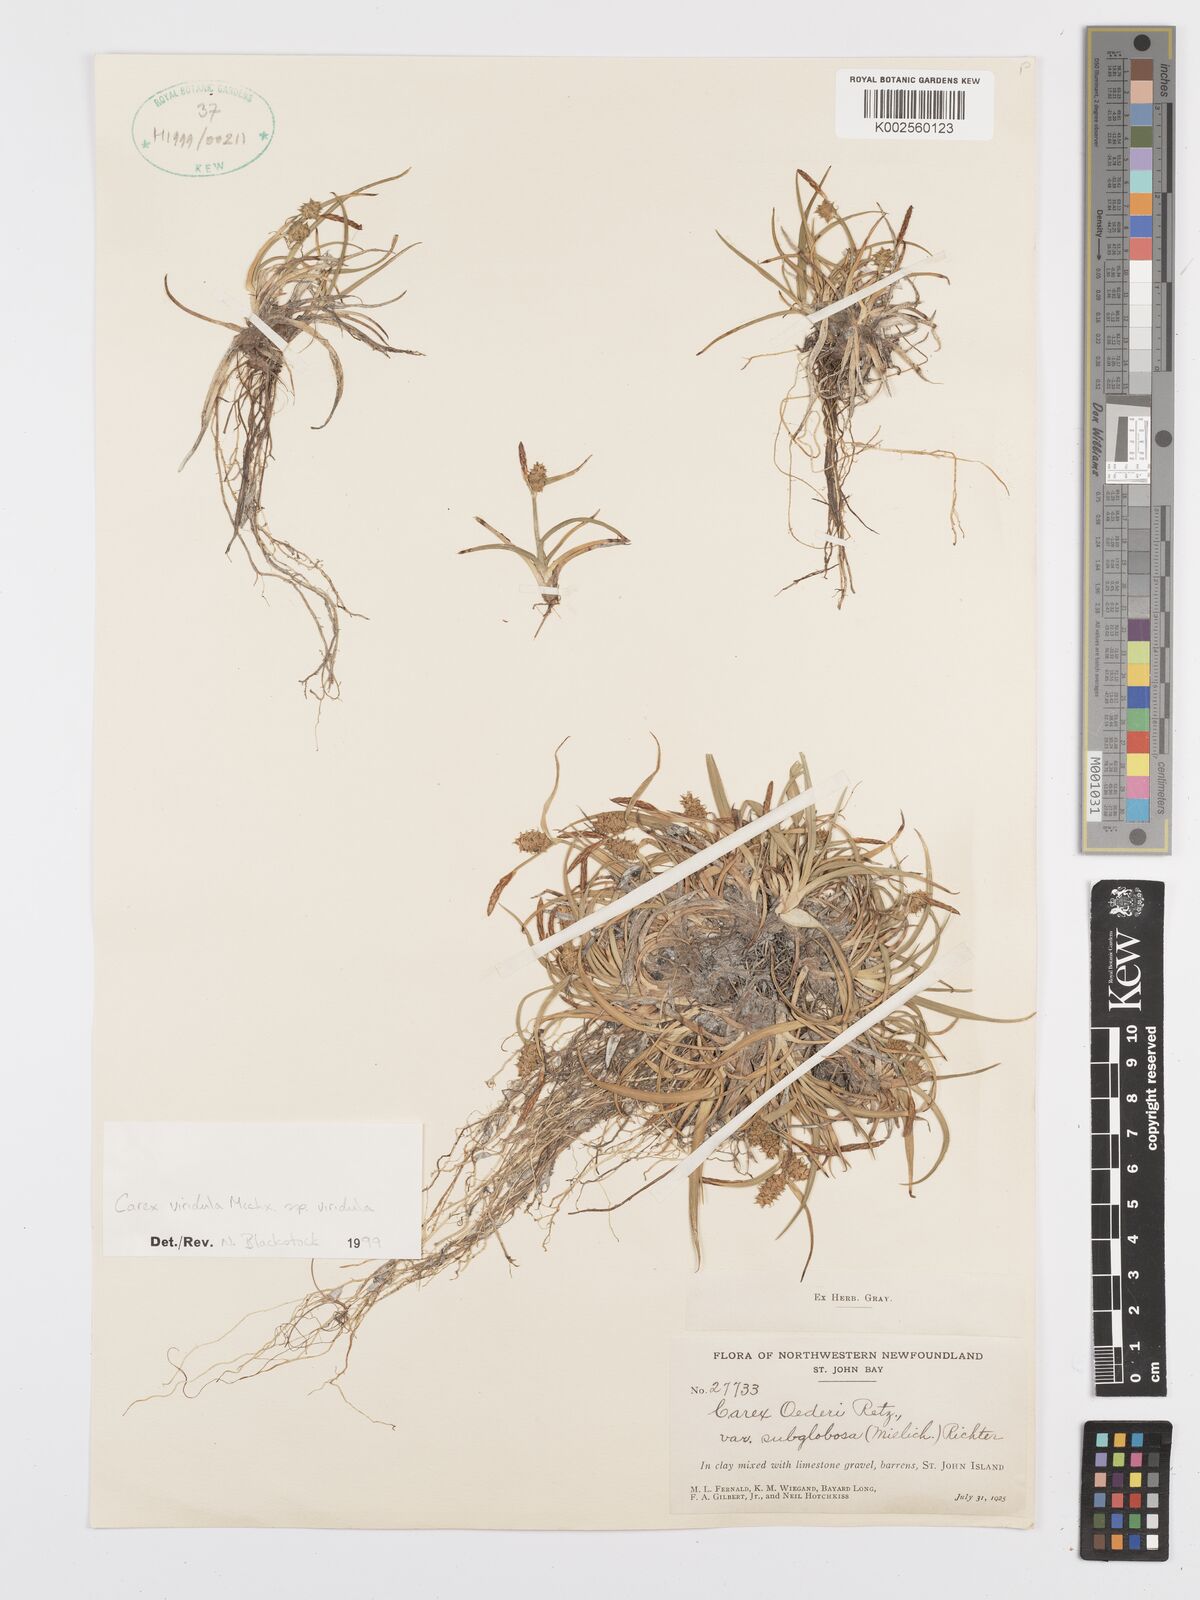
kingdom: Plantae
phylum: Tracheophyta
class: Liliopsida
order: Poales
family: Cyperaceae
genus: Carex
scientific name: Carex oederi
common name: Common & small-fruited yellow-sedge
